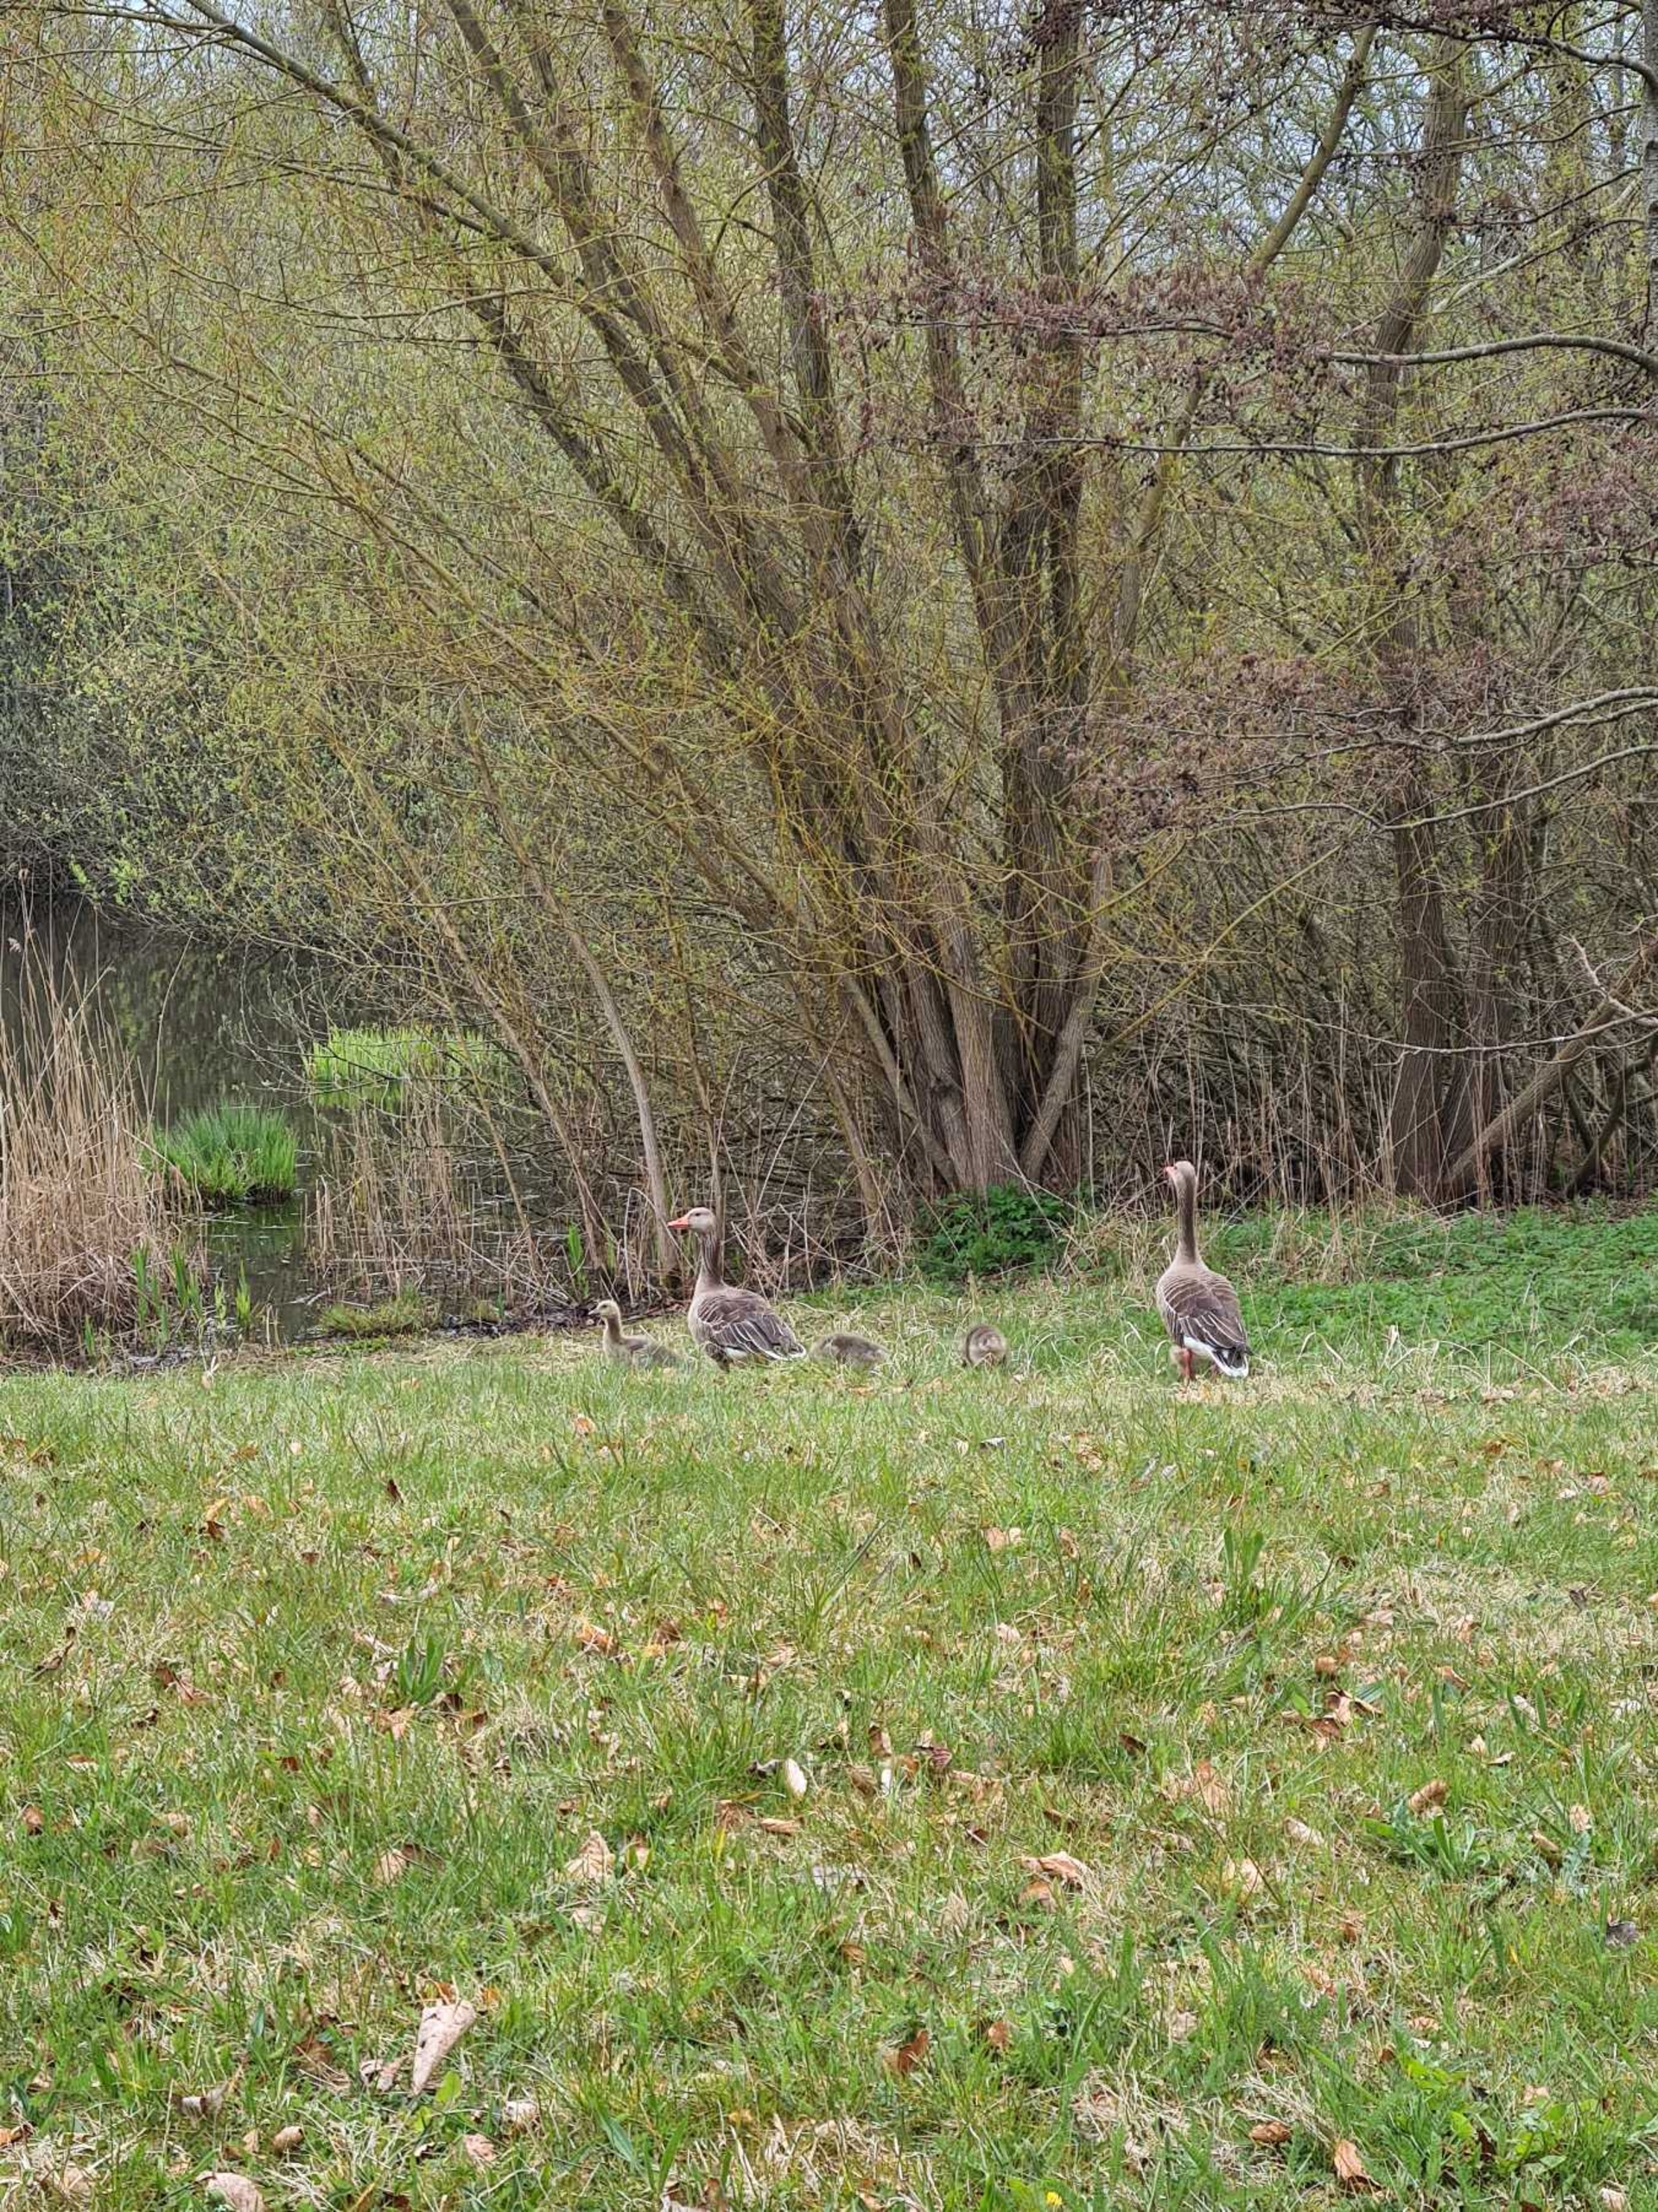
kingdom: Animalia
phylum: Chordata
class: Aves
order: Anseriformes
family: Anatidae
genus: Anser
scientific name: Anser anser
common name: Grågås
